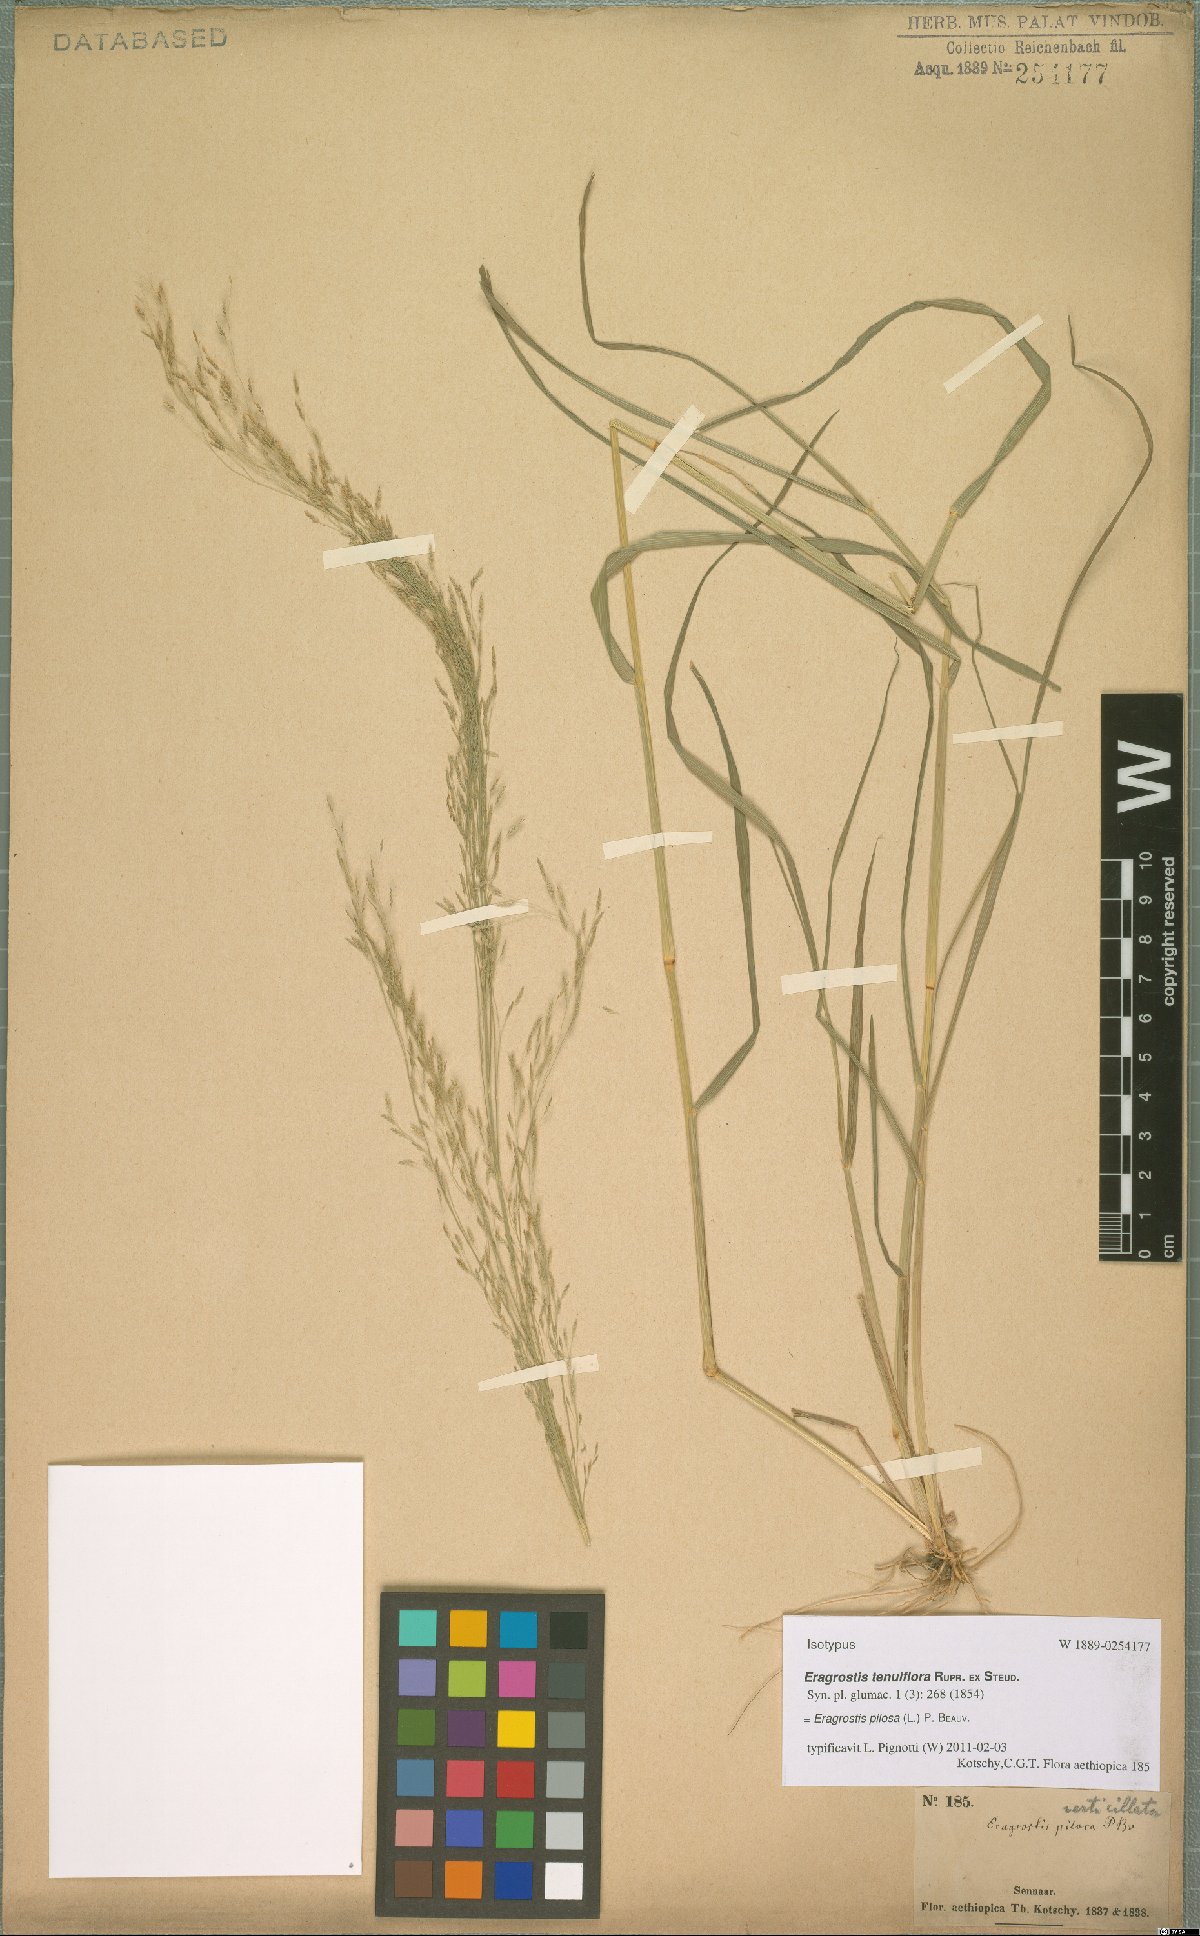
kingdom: Plantae
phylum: Tracheophyta
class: Liliopsida
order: Poales
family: Poaceae
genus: Eragrostis
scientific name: Eragrostis pilosa
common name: Indian lovegrass
